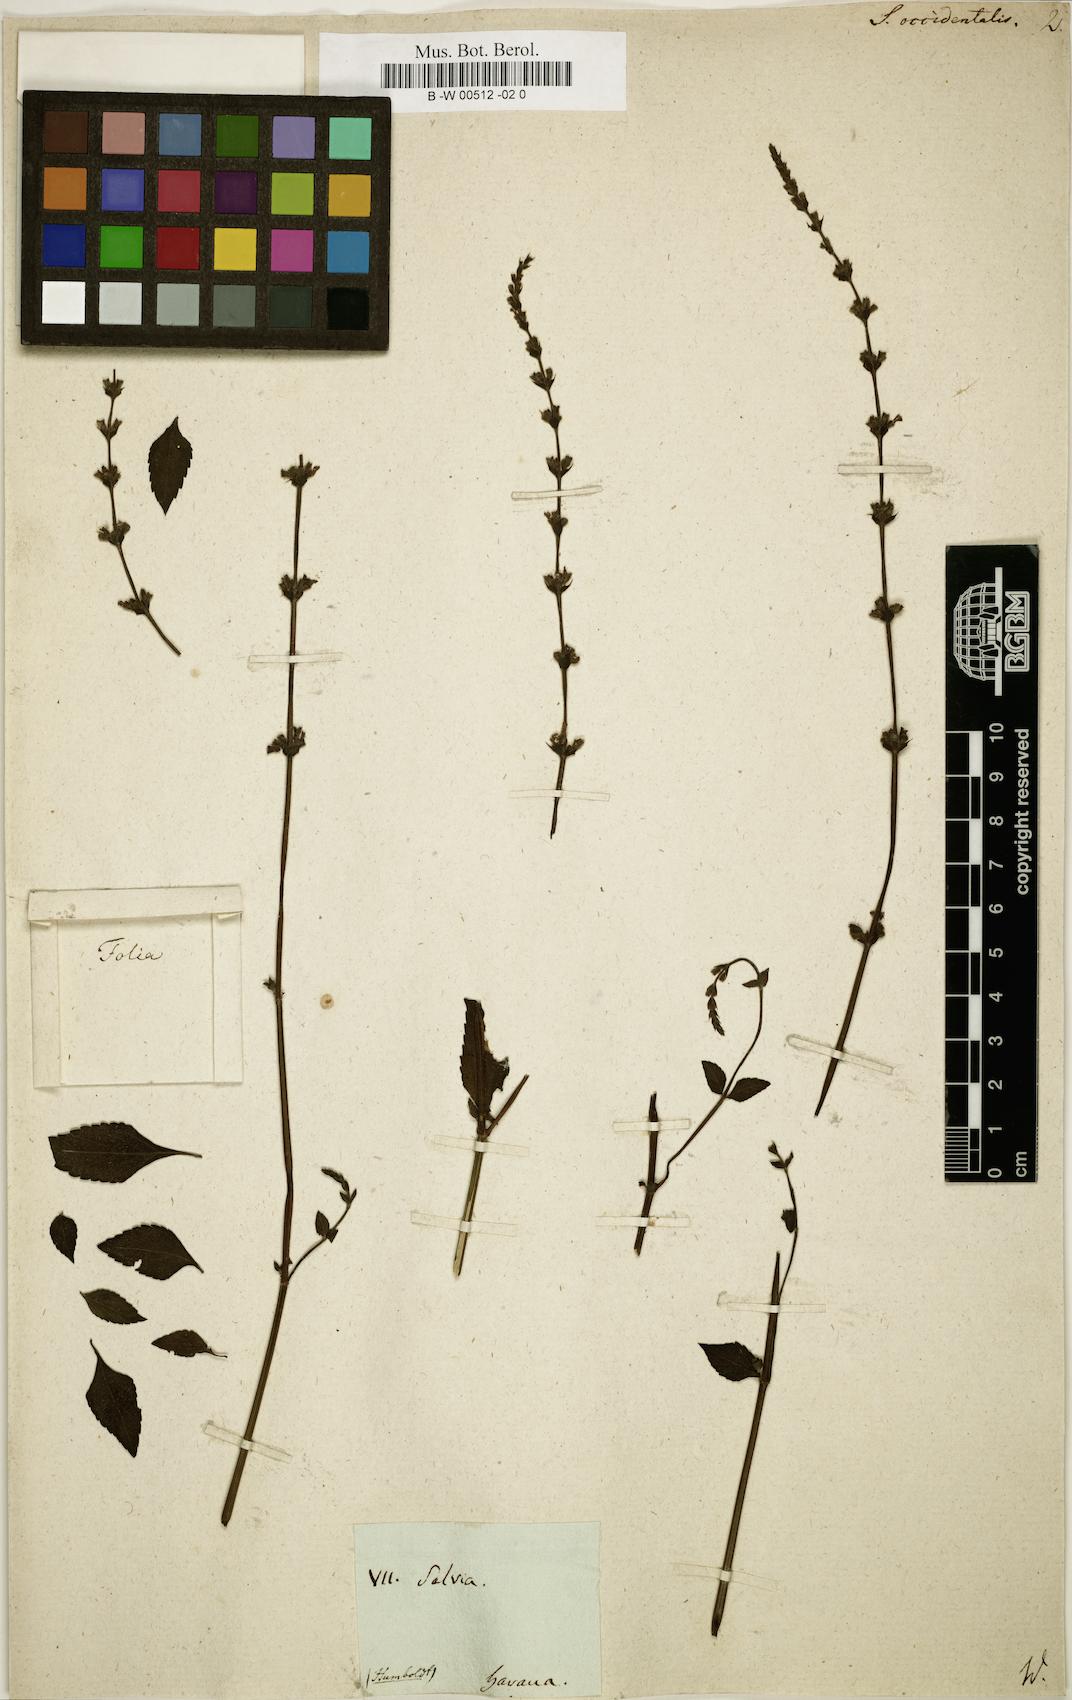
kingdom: Plantae
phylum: Tracheophyta
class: Magnoliopsida
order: Lamiales
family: Lamiaceae
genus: Salvia
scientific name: Salvia
